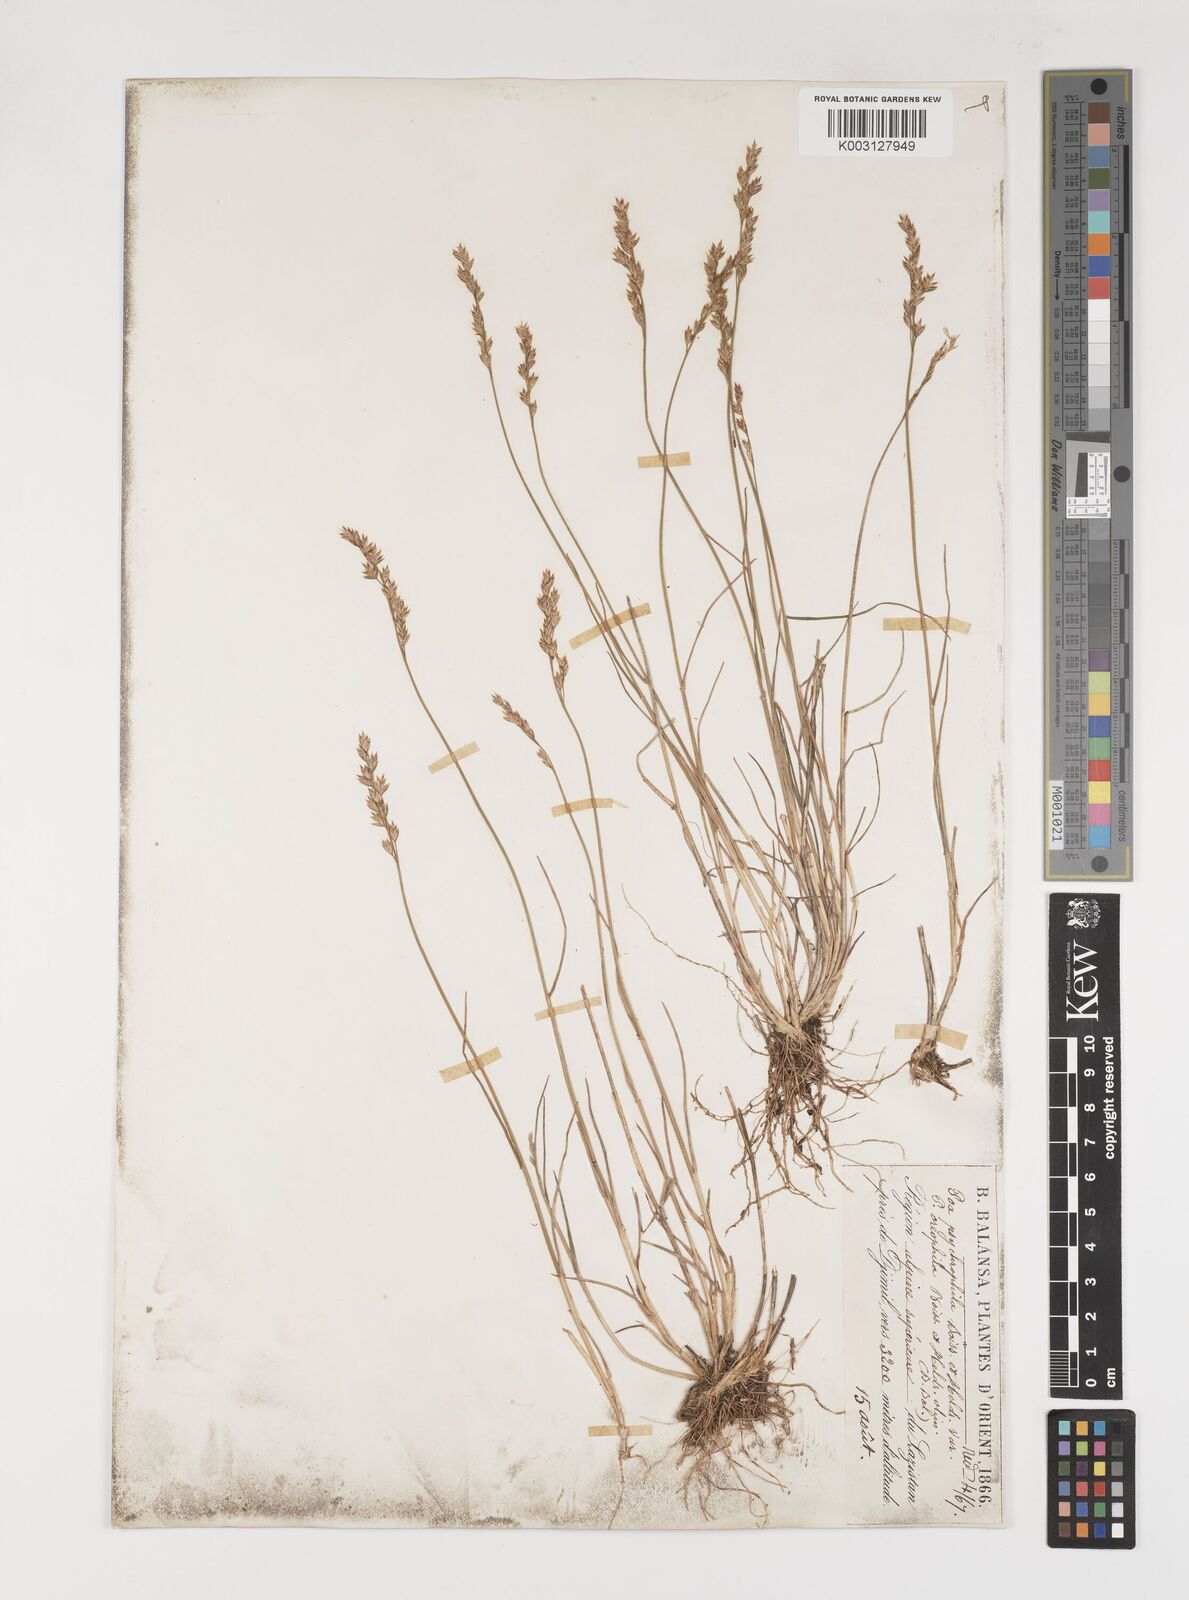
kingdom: Plantae
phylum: Tracheophyta
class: Liliopsida
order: Poales
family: Poaceae
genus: Poa
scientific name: Poa cenisia
